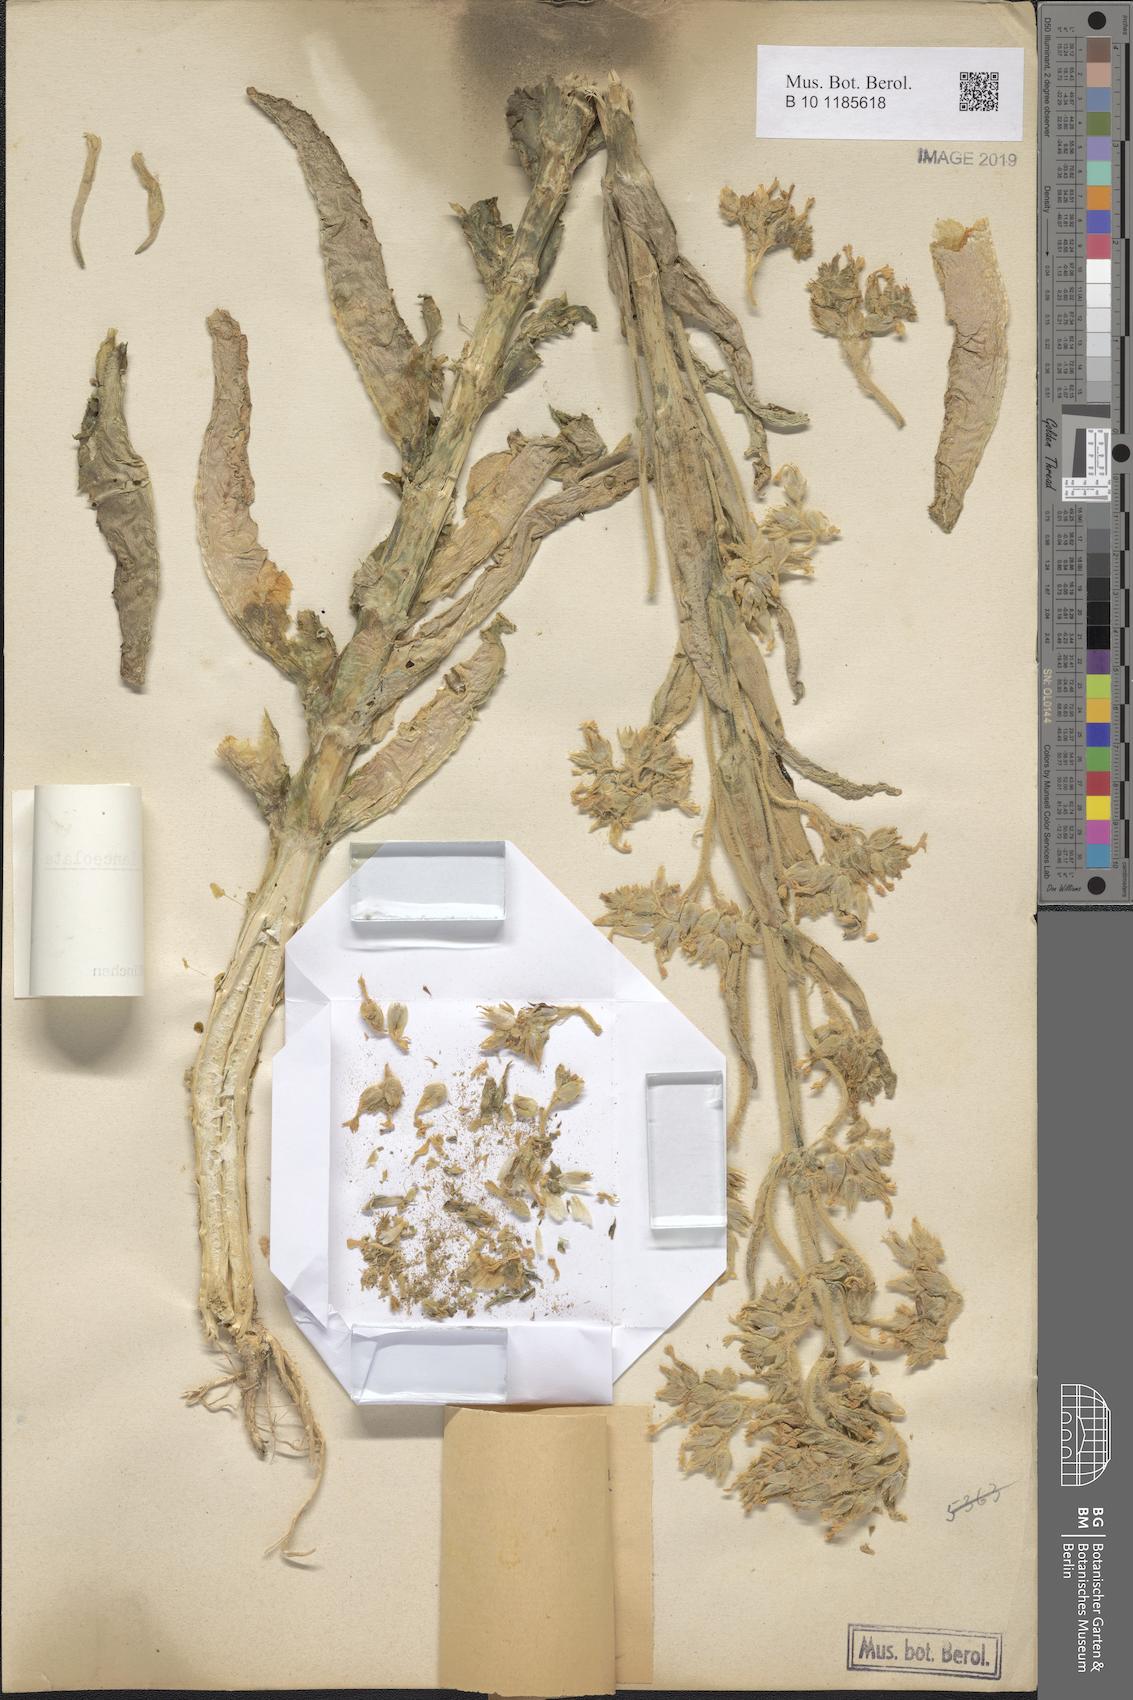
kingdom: Plantae
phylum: Tracheophyta
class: Magnoliopsida
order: Saxifragales
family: Crassulaceae
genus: Kalanchoe
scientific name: Kalanchoe lanceolata
